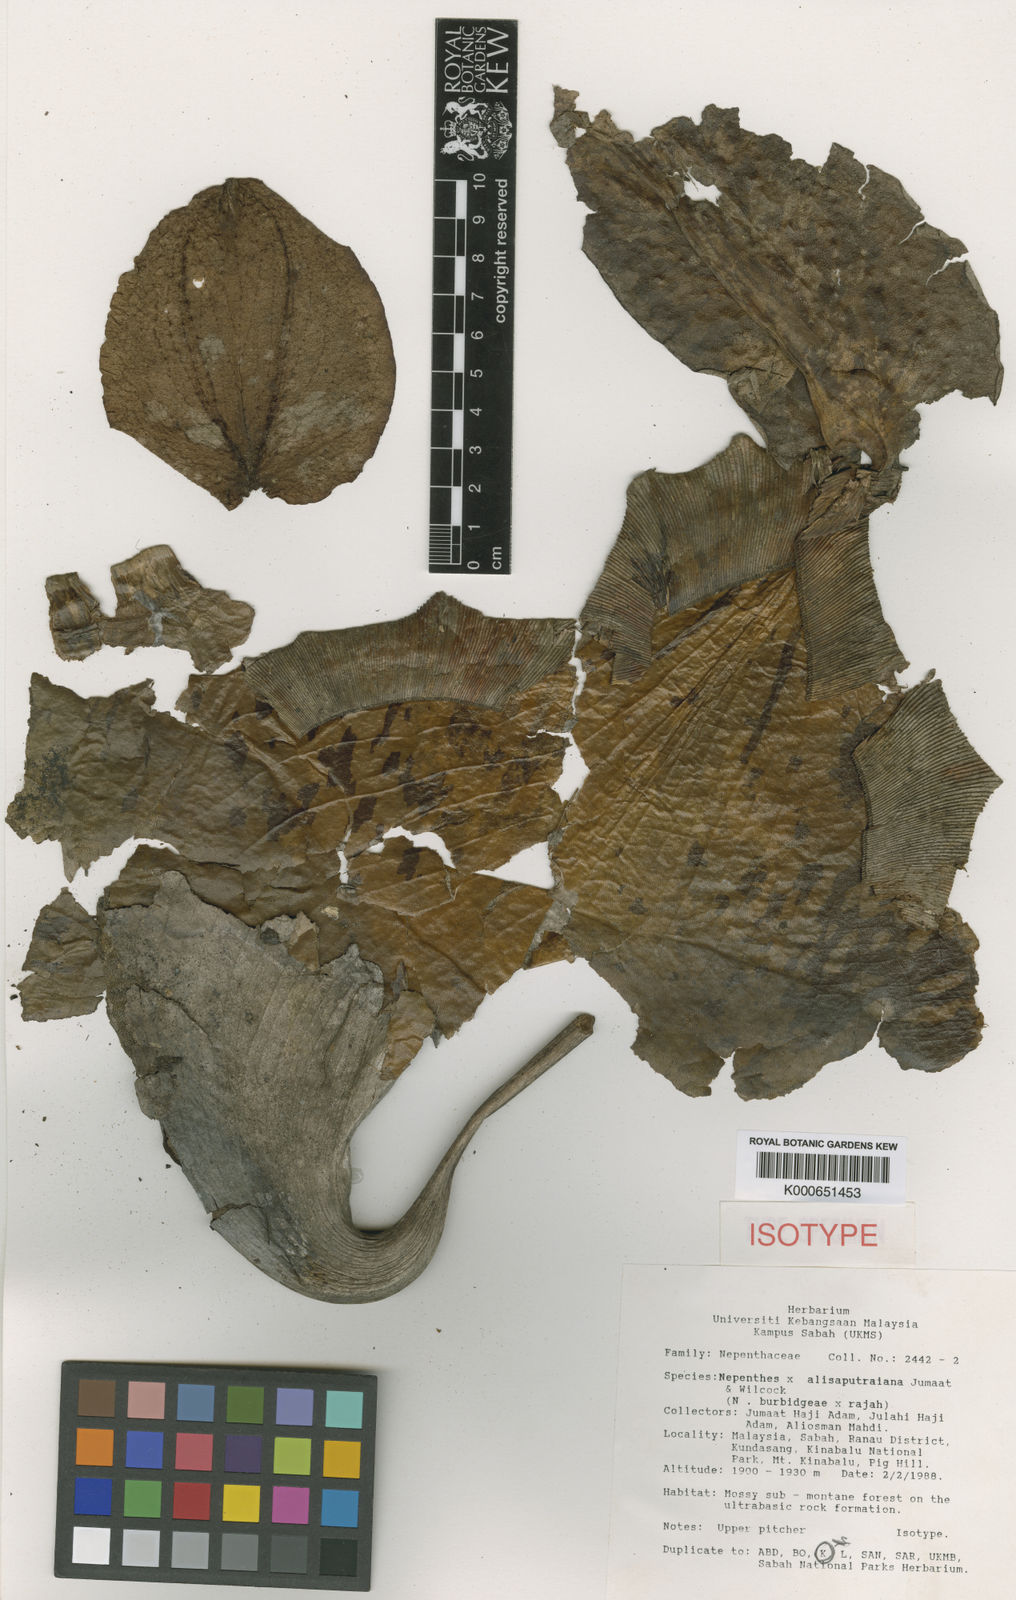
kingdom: Plantae
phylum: Tracheophyta
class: Magnoliopsida
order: Caryophyllales
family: Nepenthaceae
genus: Nepenthes
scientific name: Nepenthes
